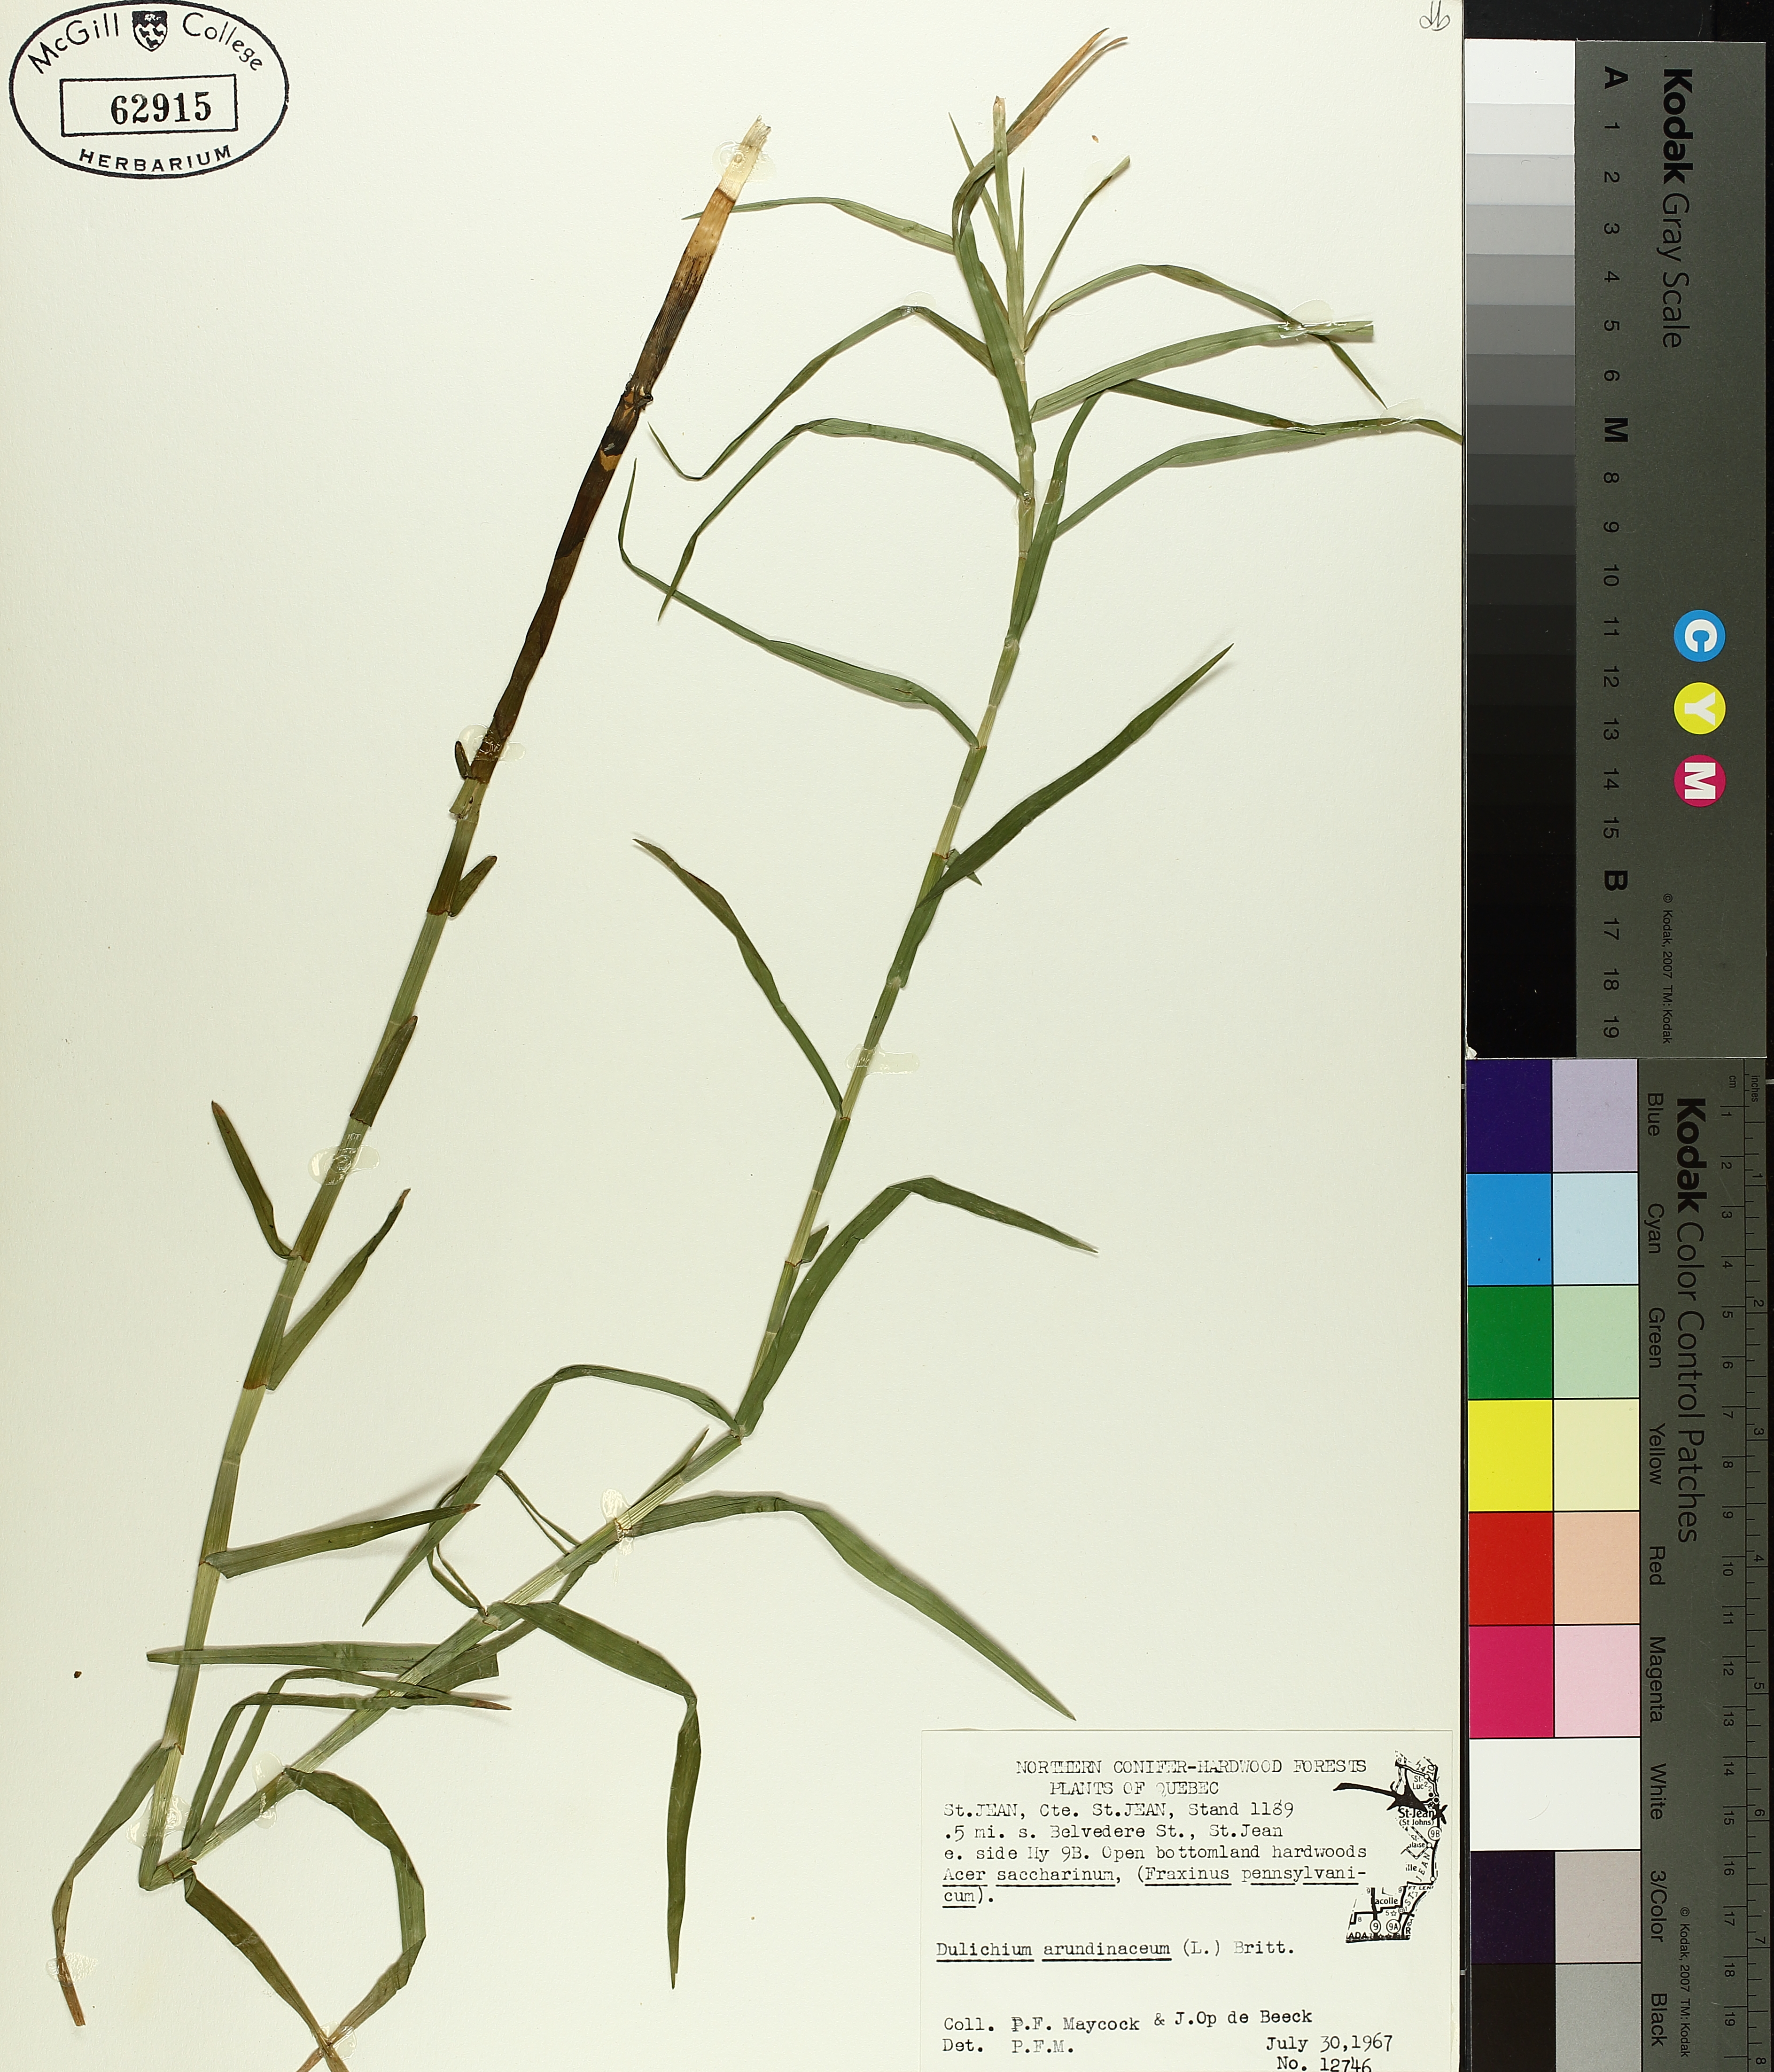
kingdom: Plantae
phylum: Tracheophyta
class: Liliopsida
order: Poales
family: Cyperaceae
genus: Dulichium
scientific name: Dulichium arundinaceum
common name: Three-way sedge
